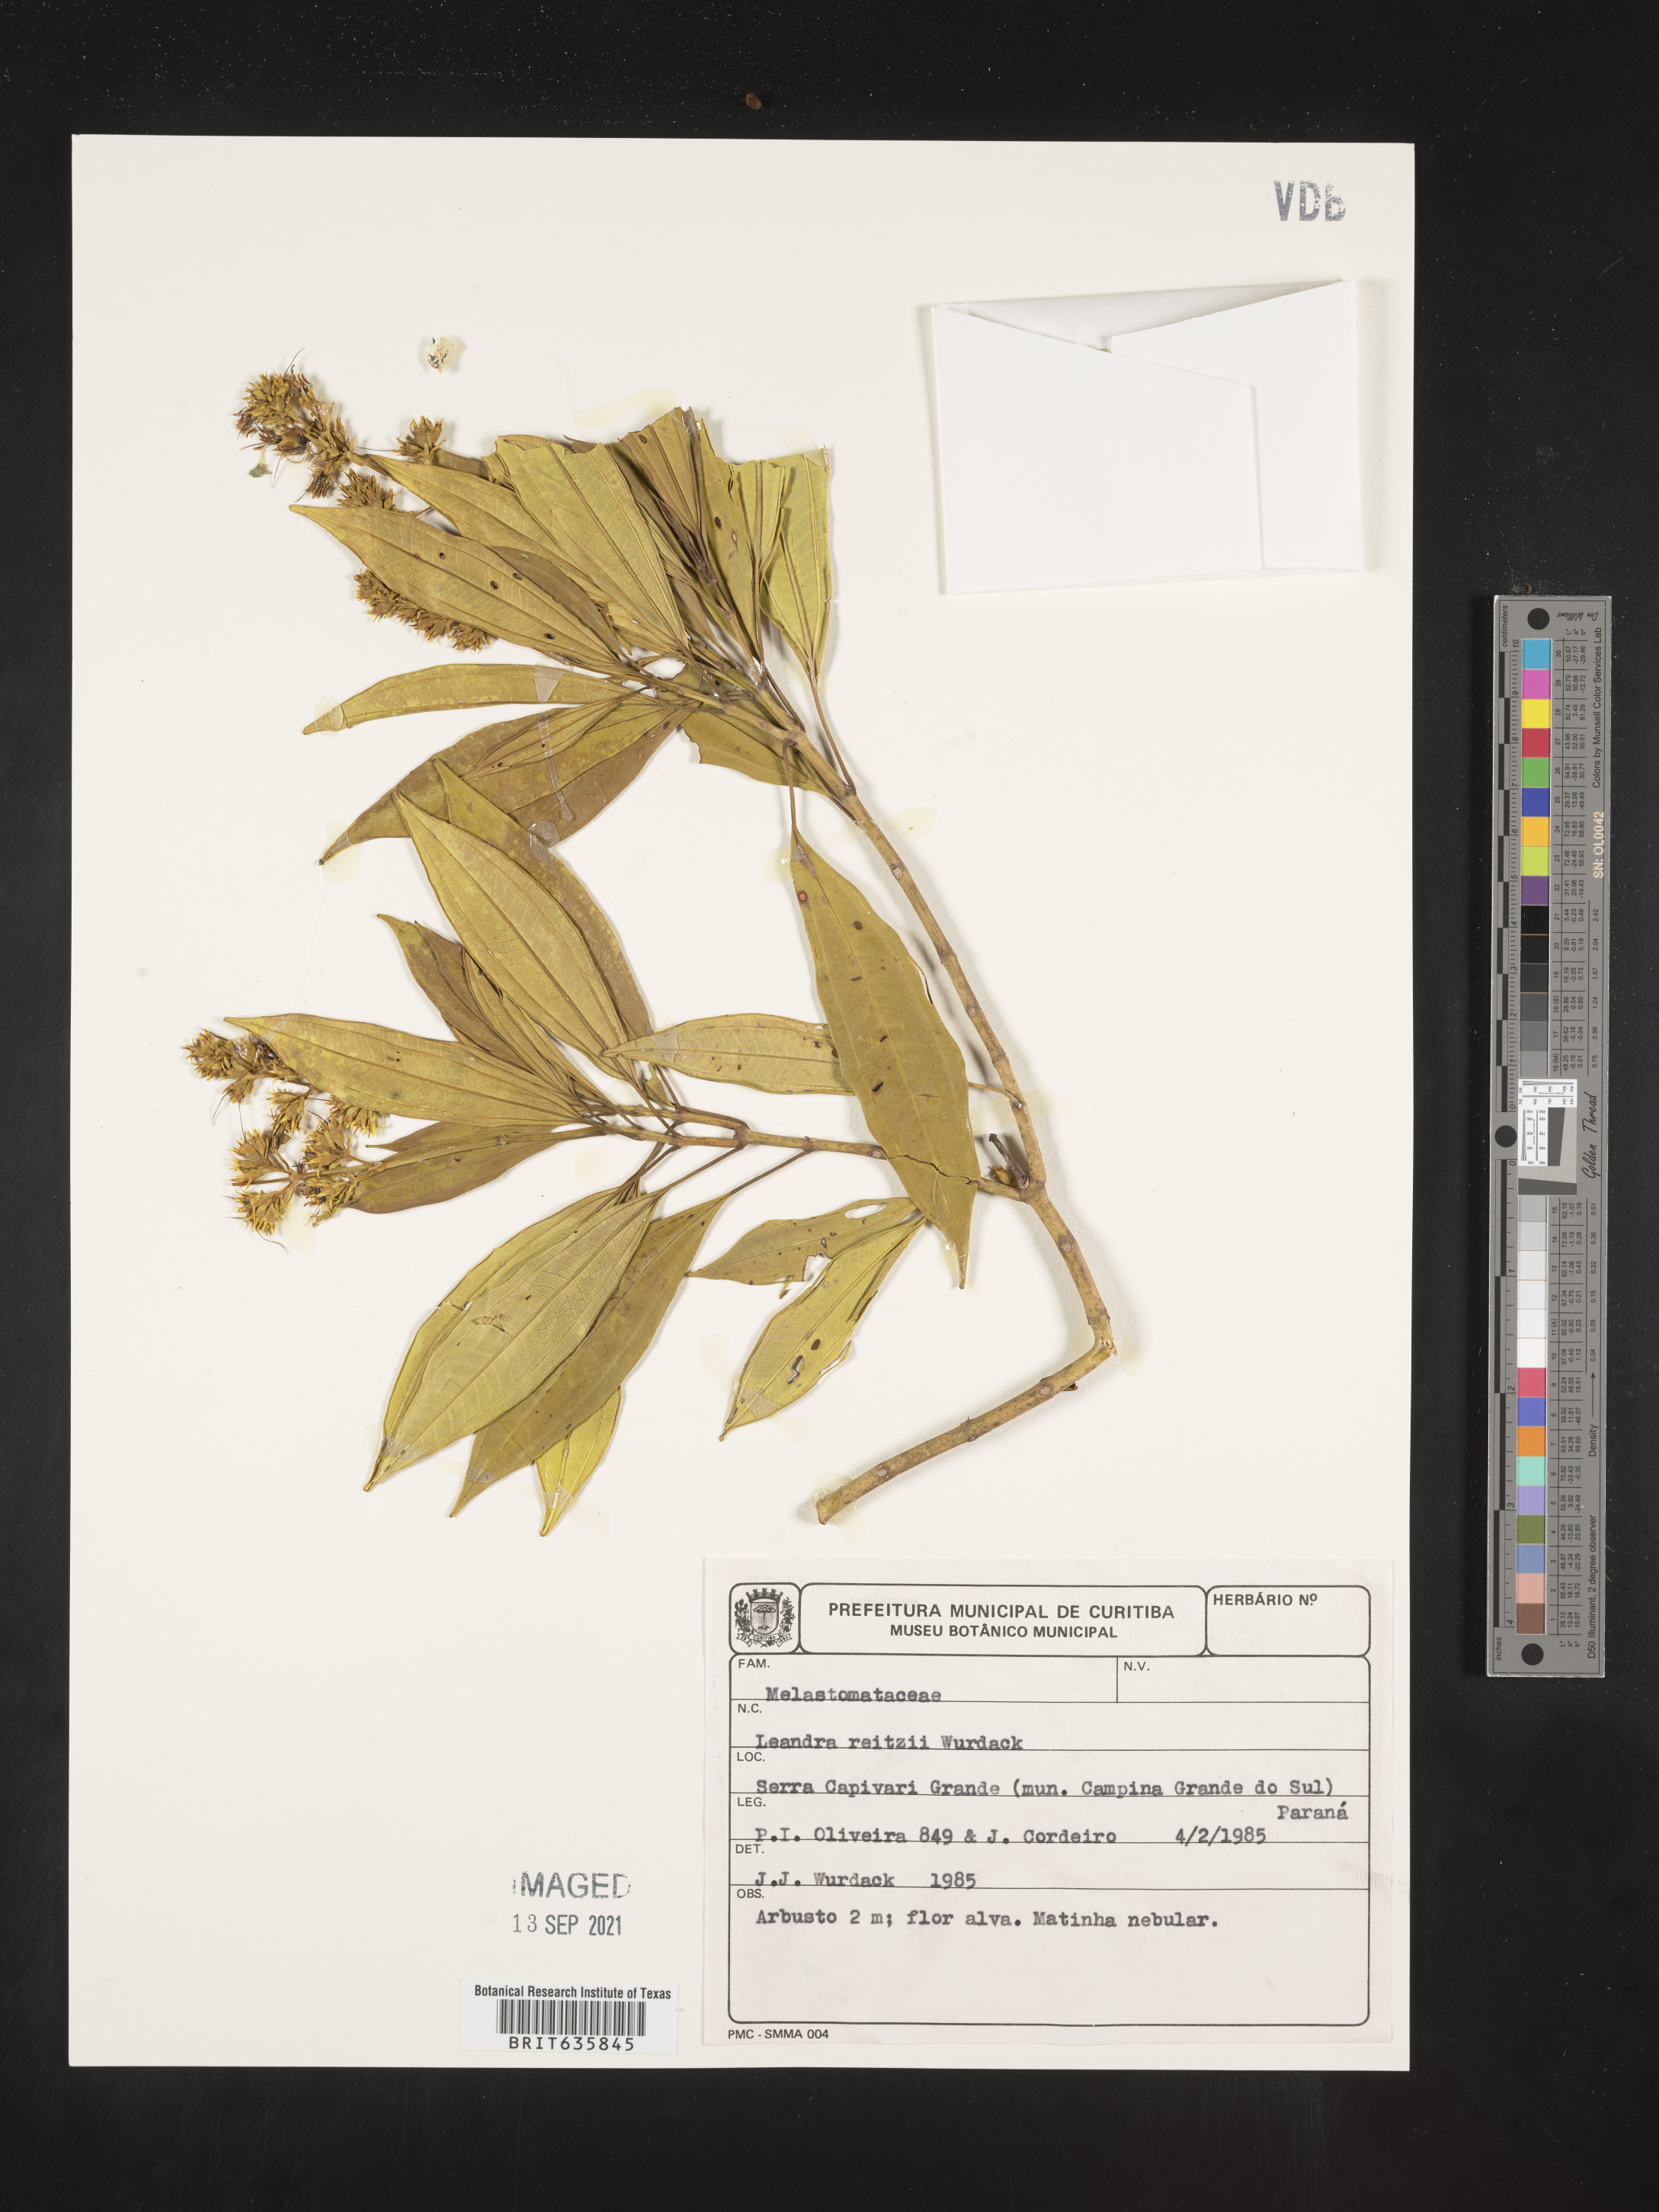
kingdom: Plantae
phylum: Tracheophyta
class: Magnoliopsida
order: Myrtales
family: Melastomataceae
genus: Miconia
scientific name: Miconia
